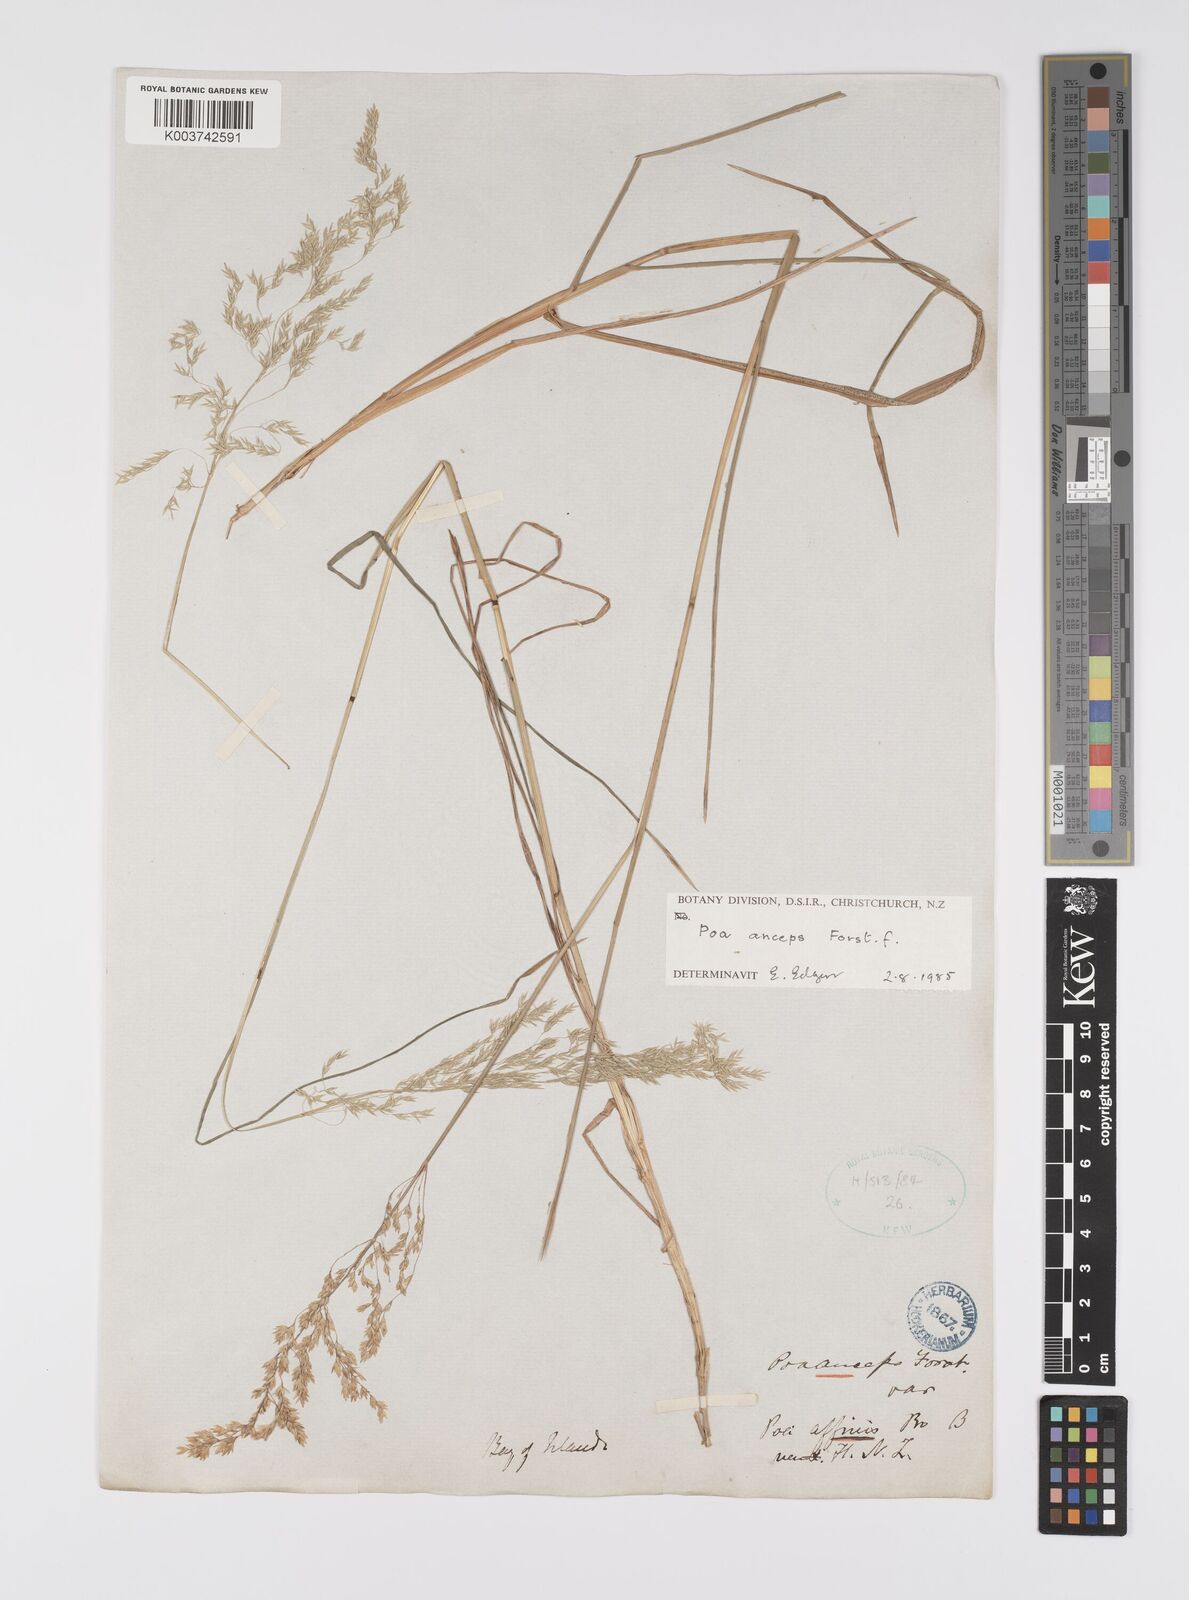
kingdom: Plantae
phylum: Tracheophyta
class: Liliopsida
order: Poales
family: Poaceae
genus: Poa
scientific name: Poa anceps
